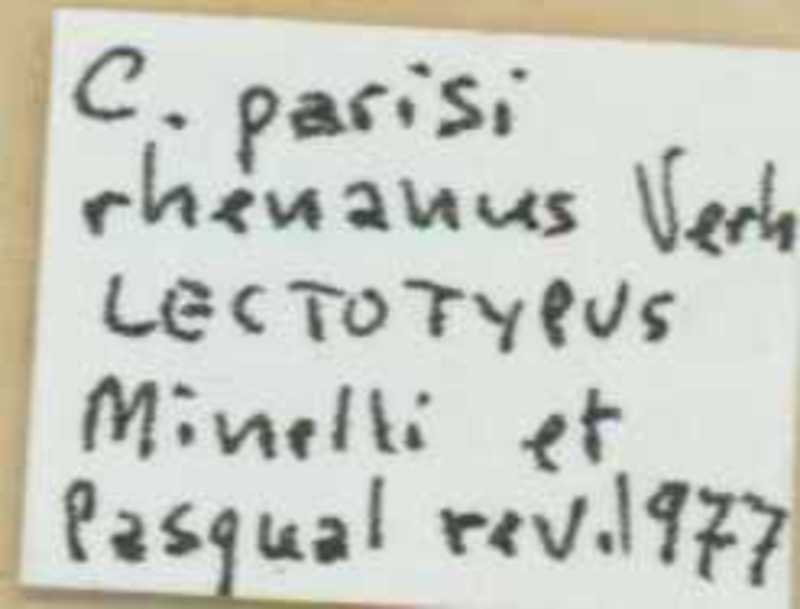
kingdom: Animalia
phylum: Arthropoda
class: Chilopoda
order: Scolopendromorpha
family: Cryptopidae
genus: Cryptops
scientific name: Cryptops parisi
